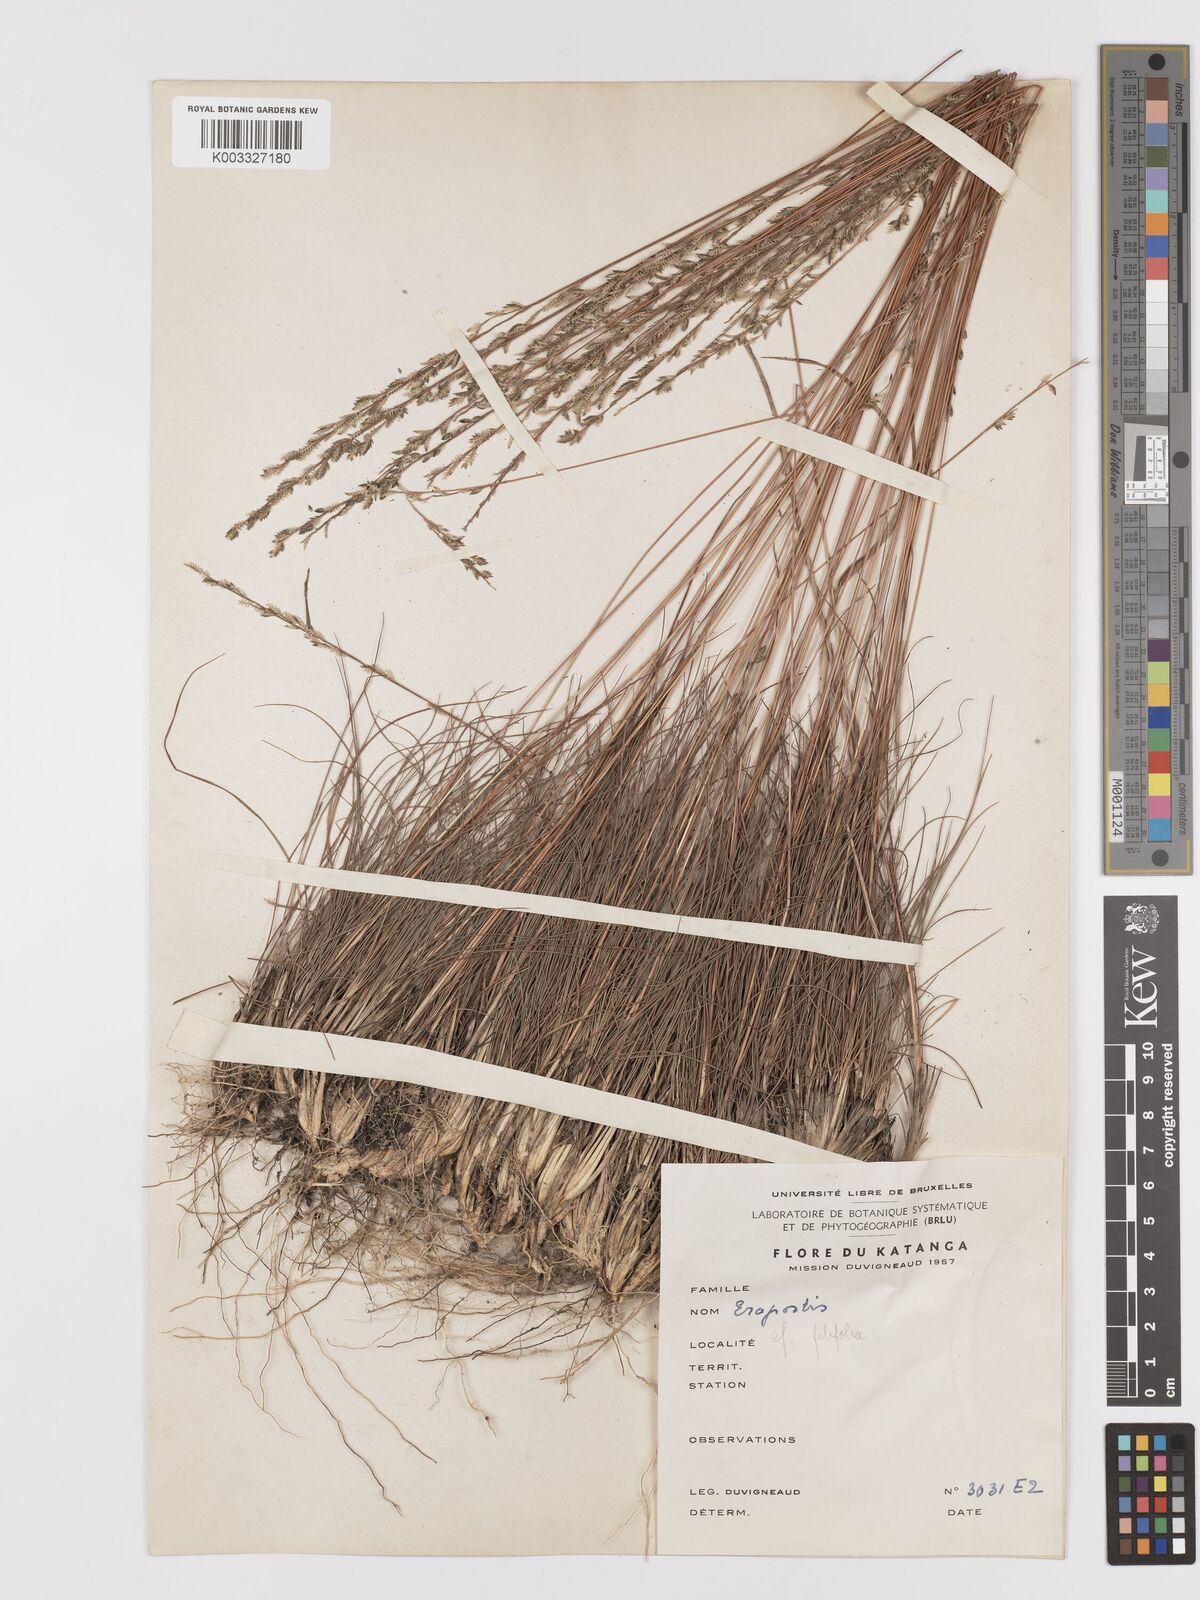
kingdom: Plantae
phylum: Tracheophyta
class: Liliopsida
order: Poales
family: Poaceae
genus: Eragrostis
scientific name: Eragrostis racemosa
